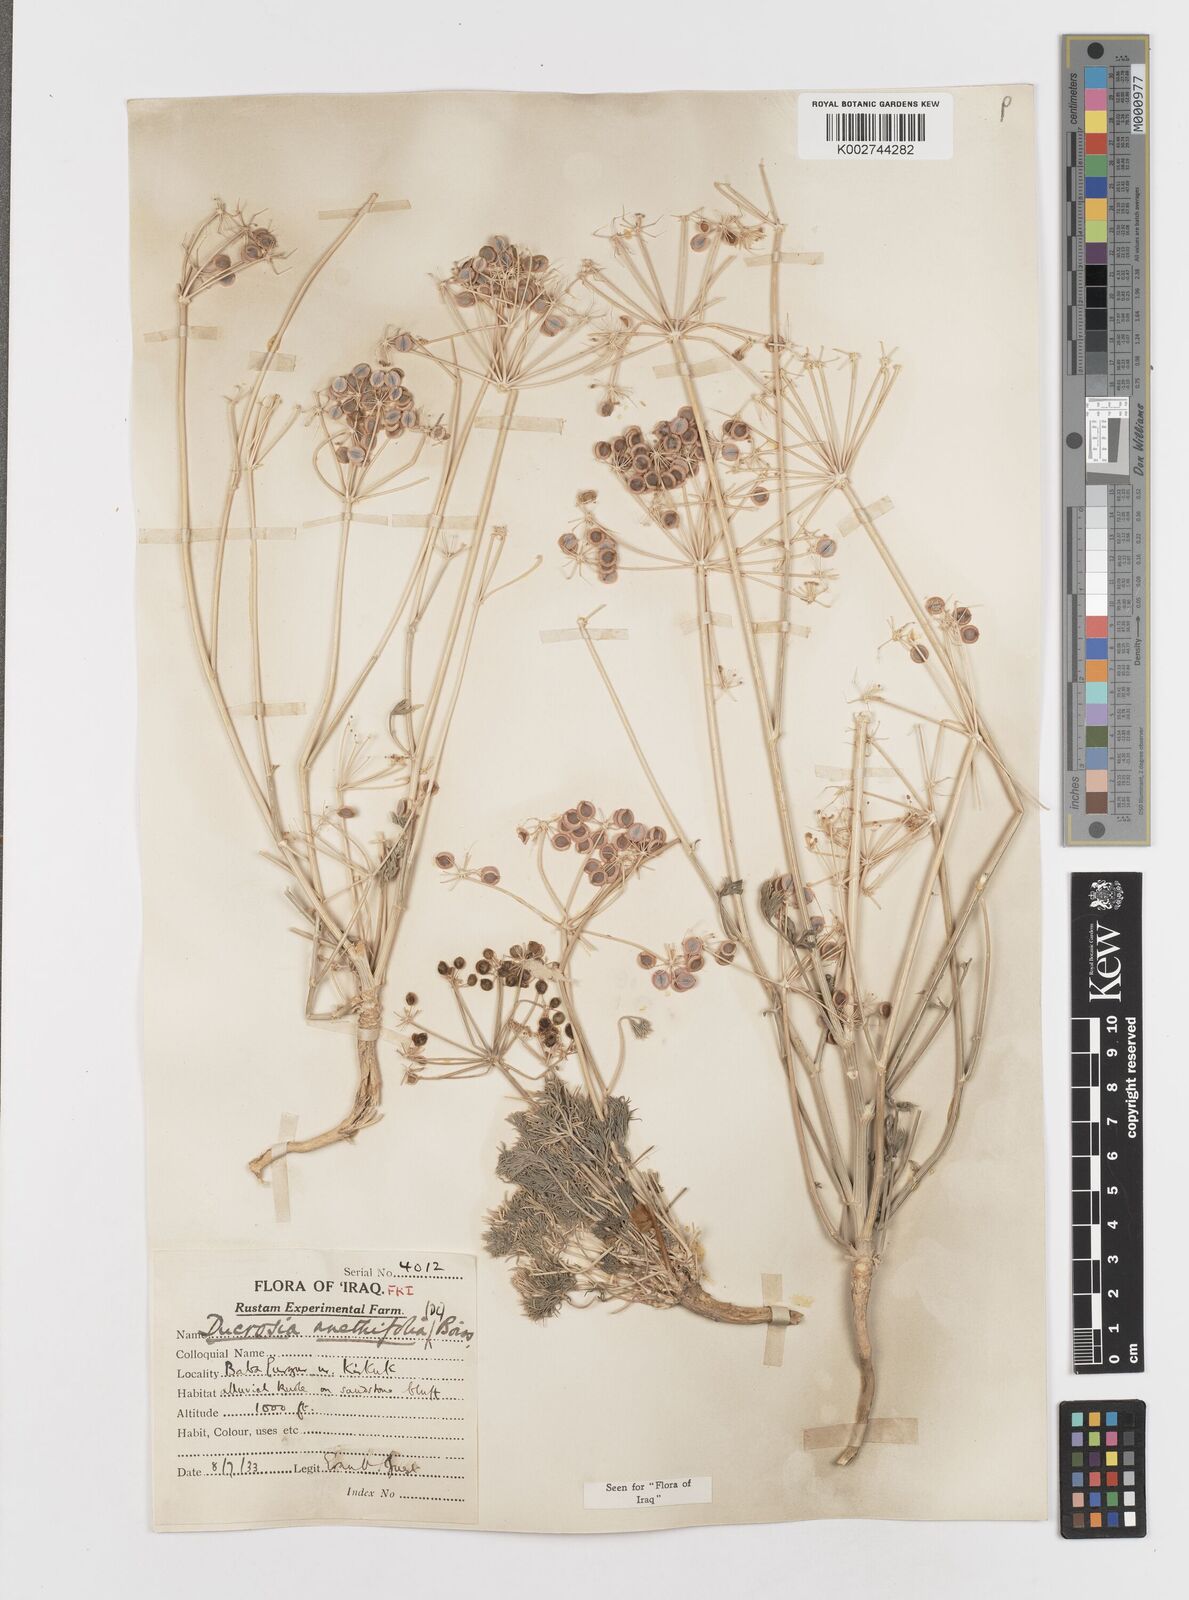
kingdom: Plantae
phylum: Tracheophyta
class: Magnoliopsida
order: Apiales
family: Apiaceae
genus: Ducrosia
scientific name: Ducrosia anethifolia
